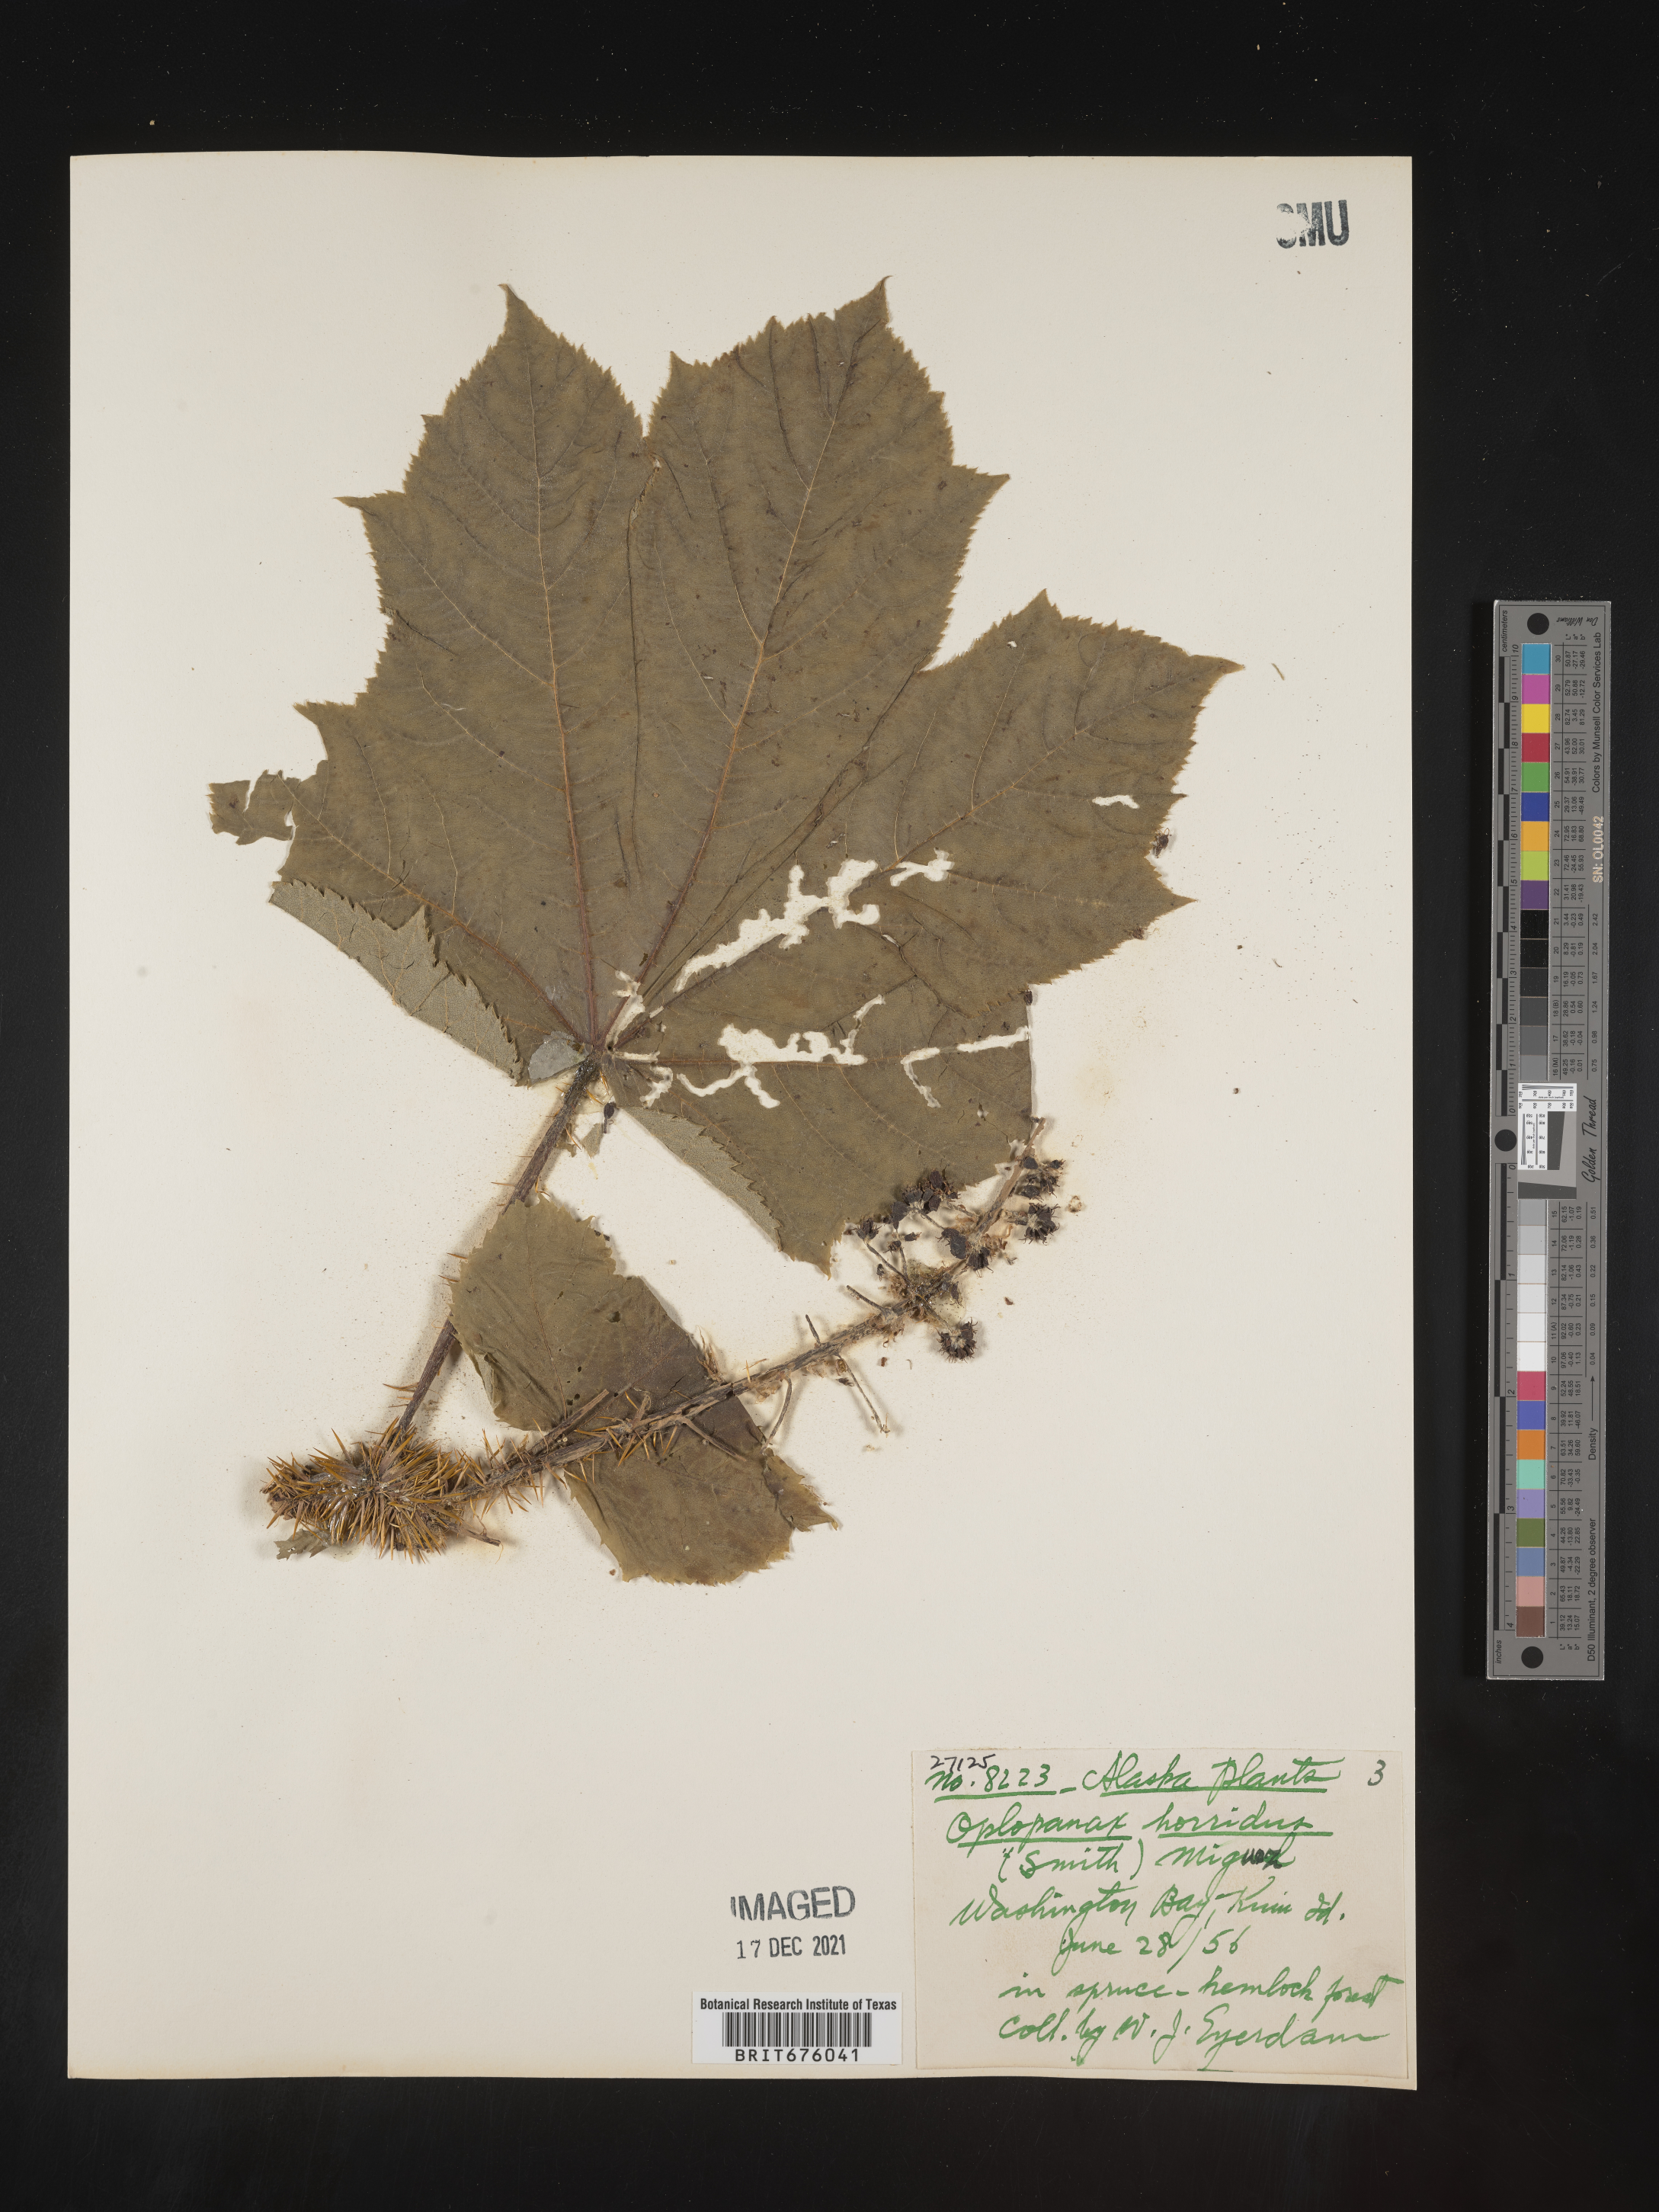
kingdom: Plantae
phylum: Tracheophyta
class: Magnoliopsida
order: Apiales
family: Araliaceae
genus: Oplopanax
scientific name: Oplopanax
